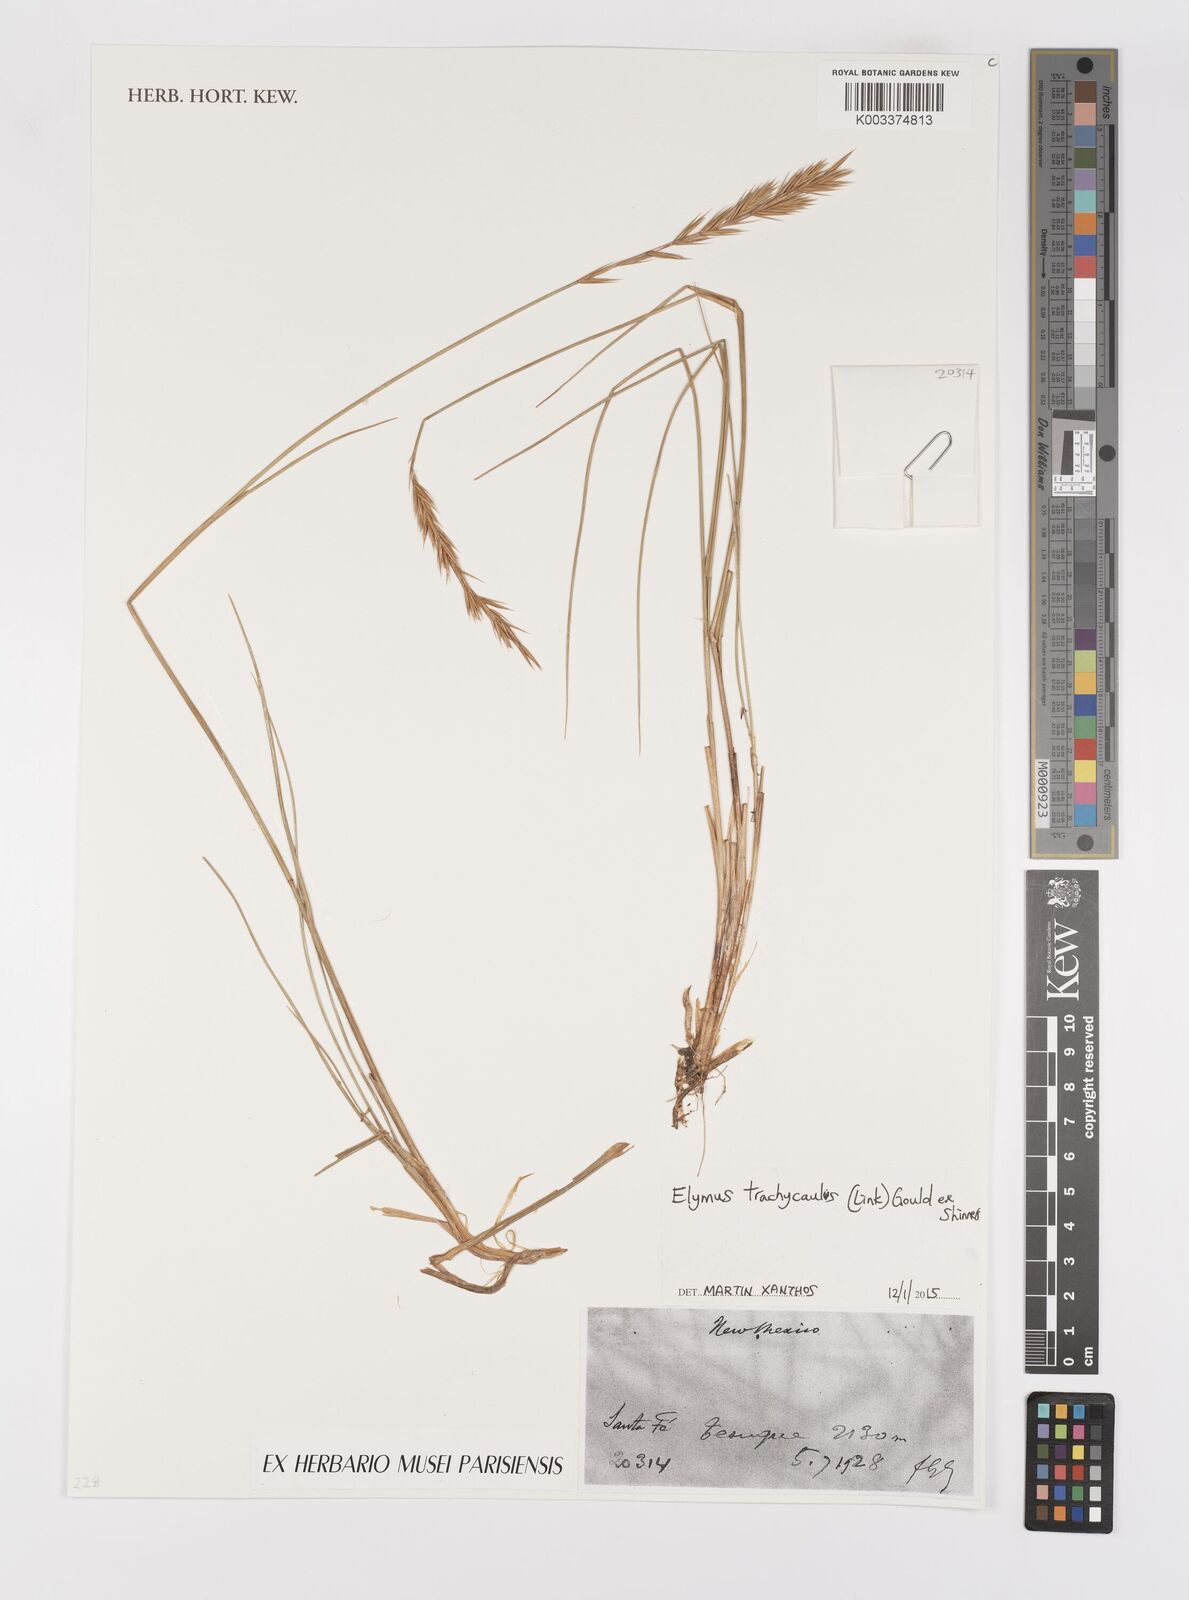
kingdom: Plantae
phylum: Tracheophyta
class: Liliopsida
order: Poales
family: Poaceae
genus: Elymus
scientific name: Elymus violaceus
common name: Arctic wheatgrass
